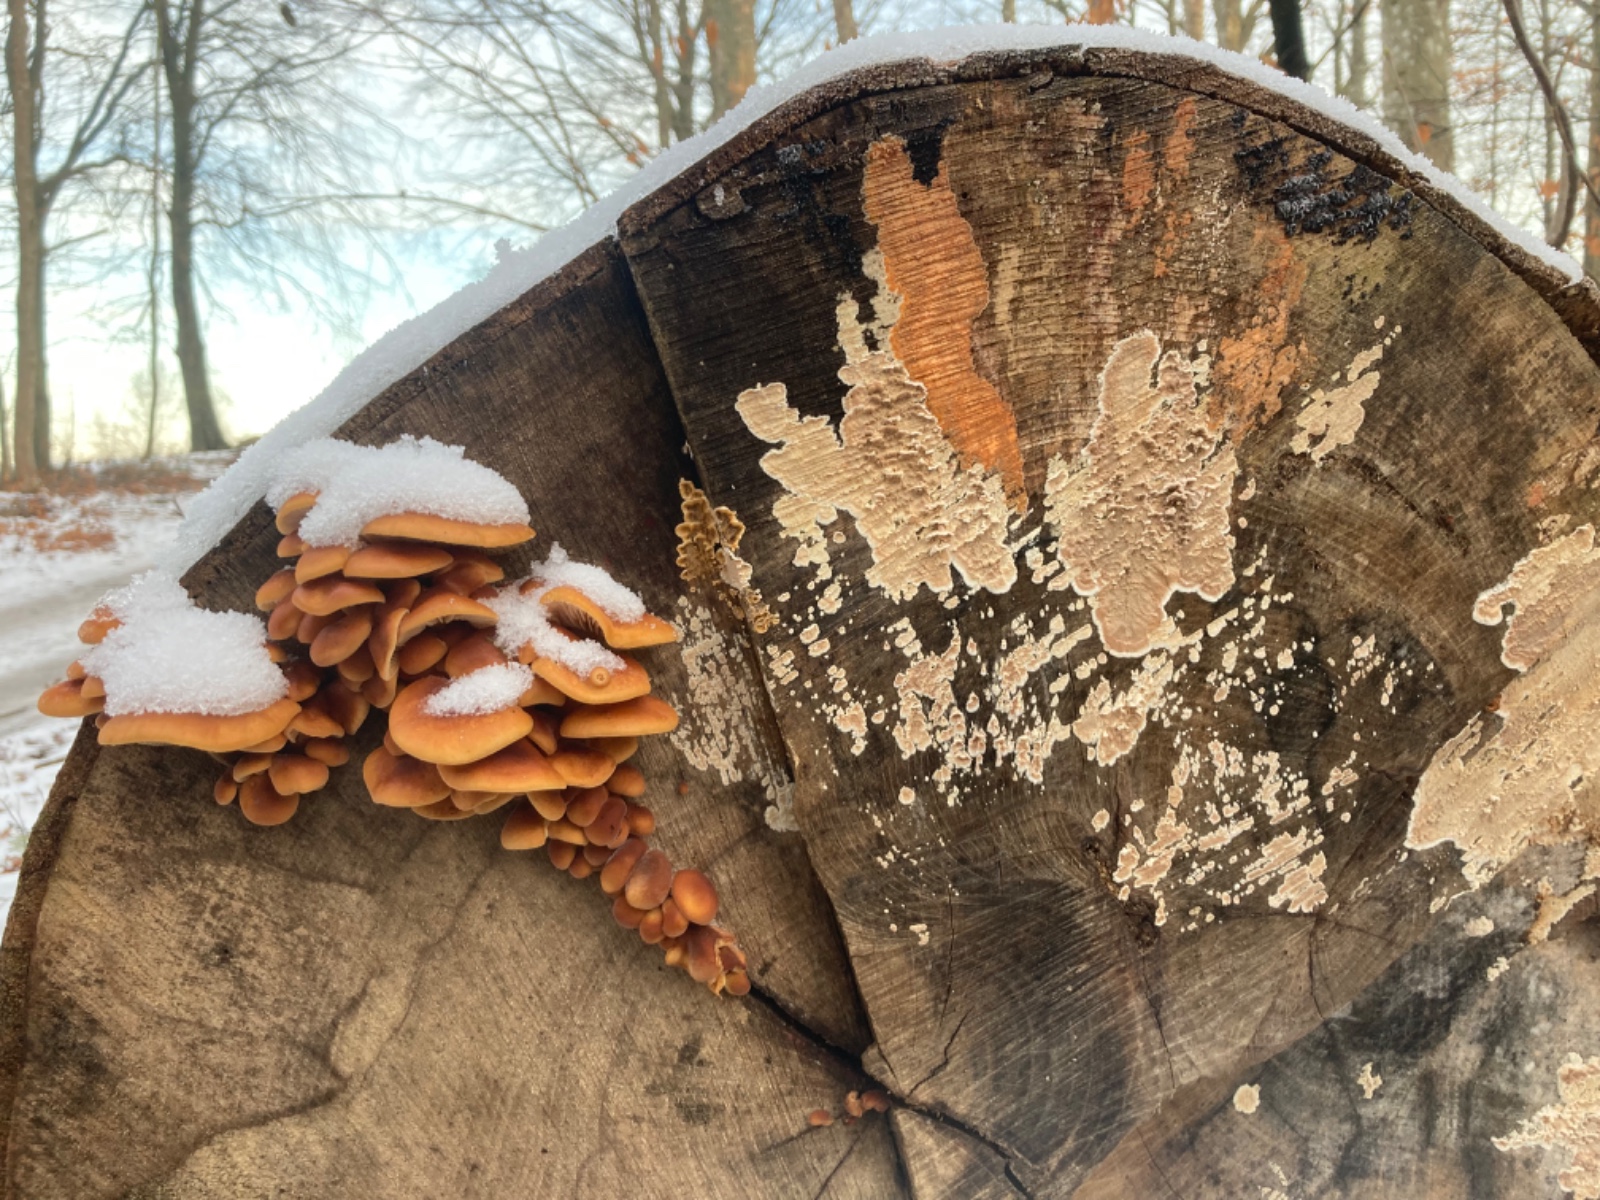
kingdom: Fungi
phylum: Basidiomycota
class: Agaricomycetes
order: Russulales
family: Peniophoraceae
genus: Peniophora
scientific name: Peniophora incarnata
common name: laksefarvet voksskind
